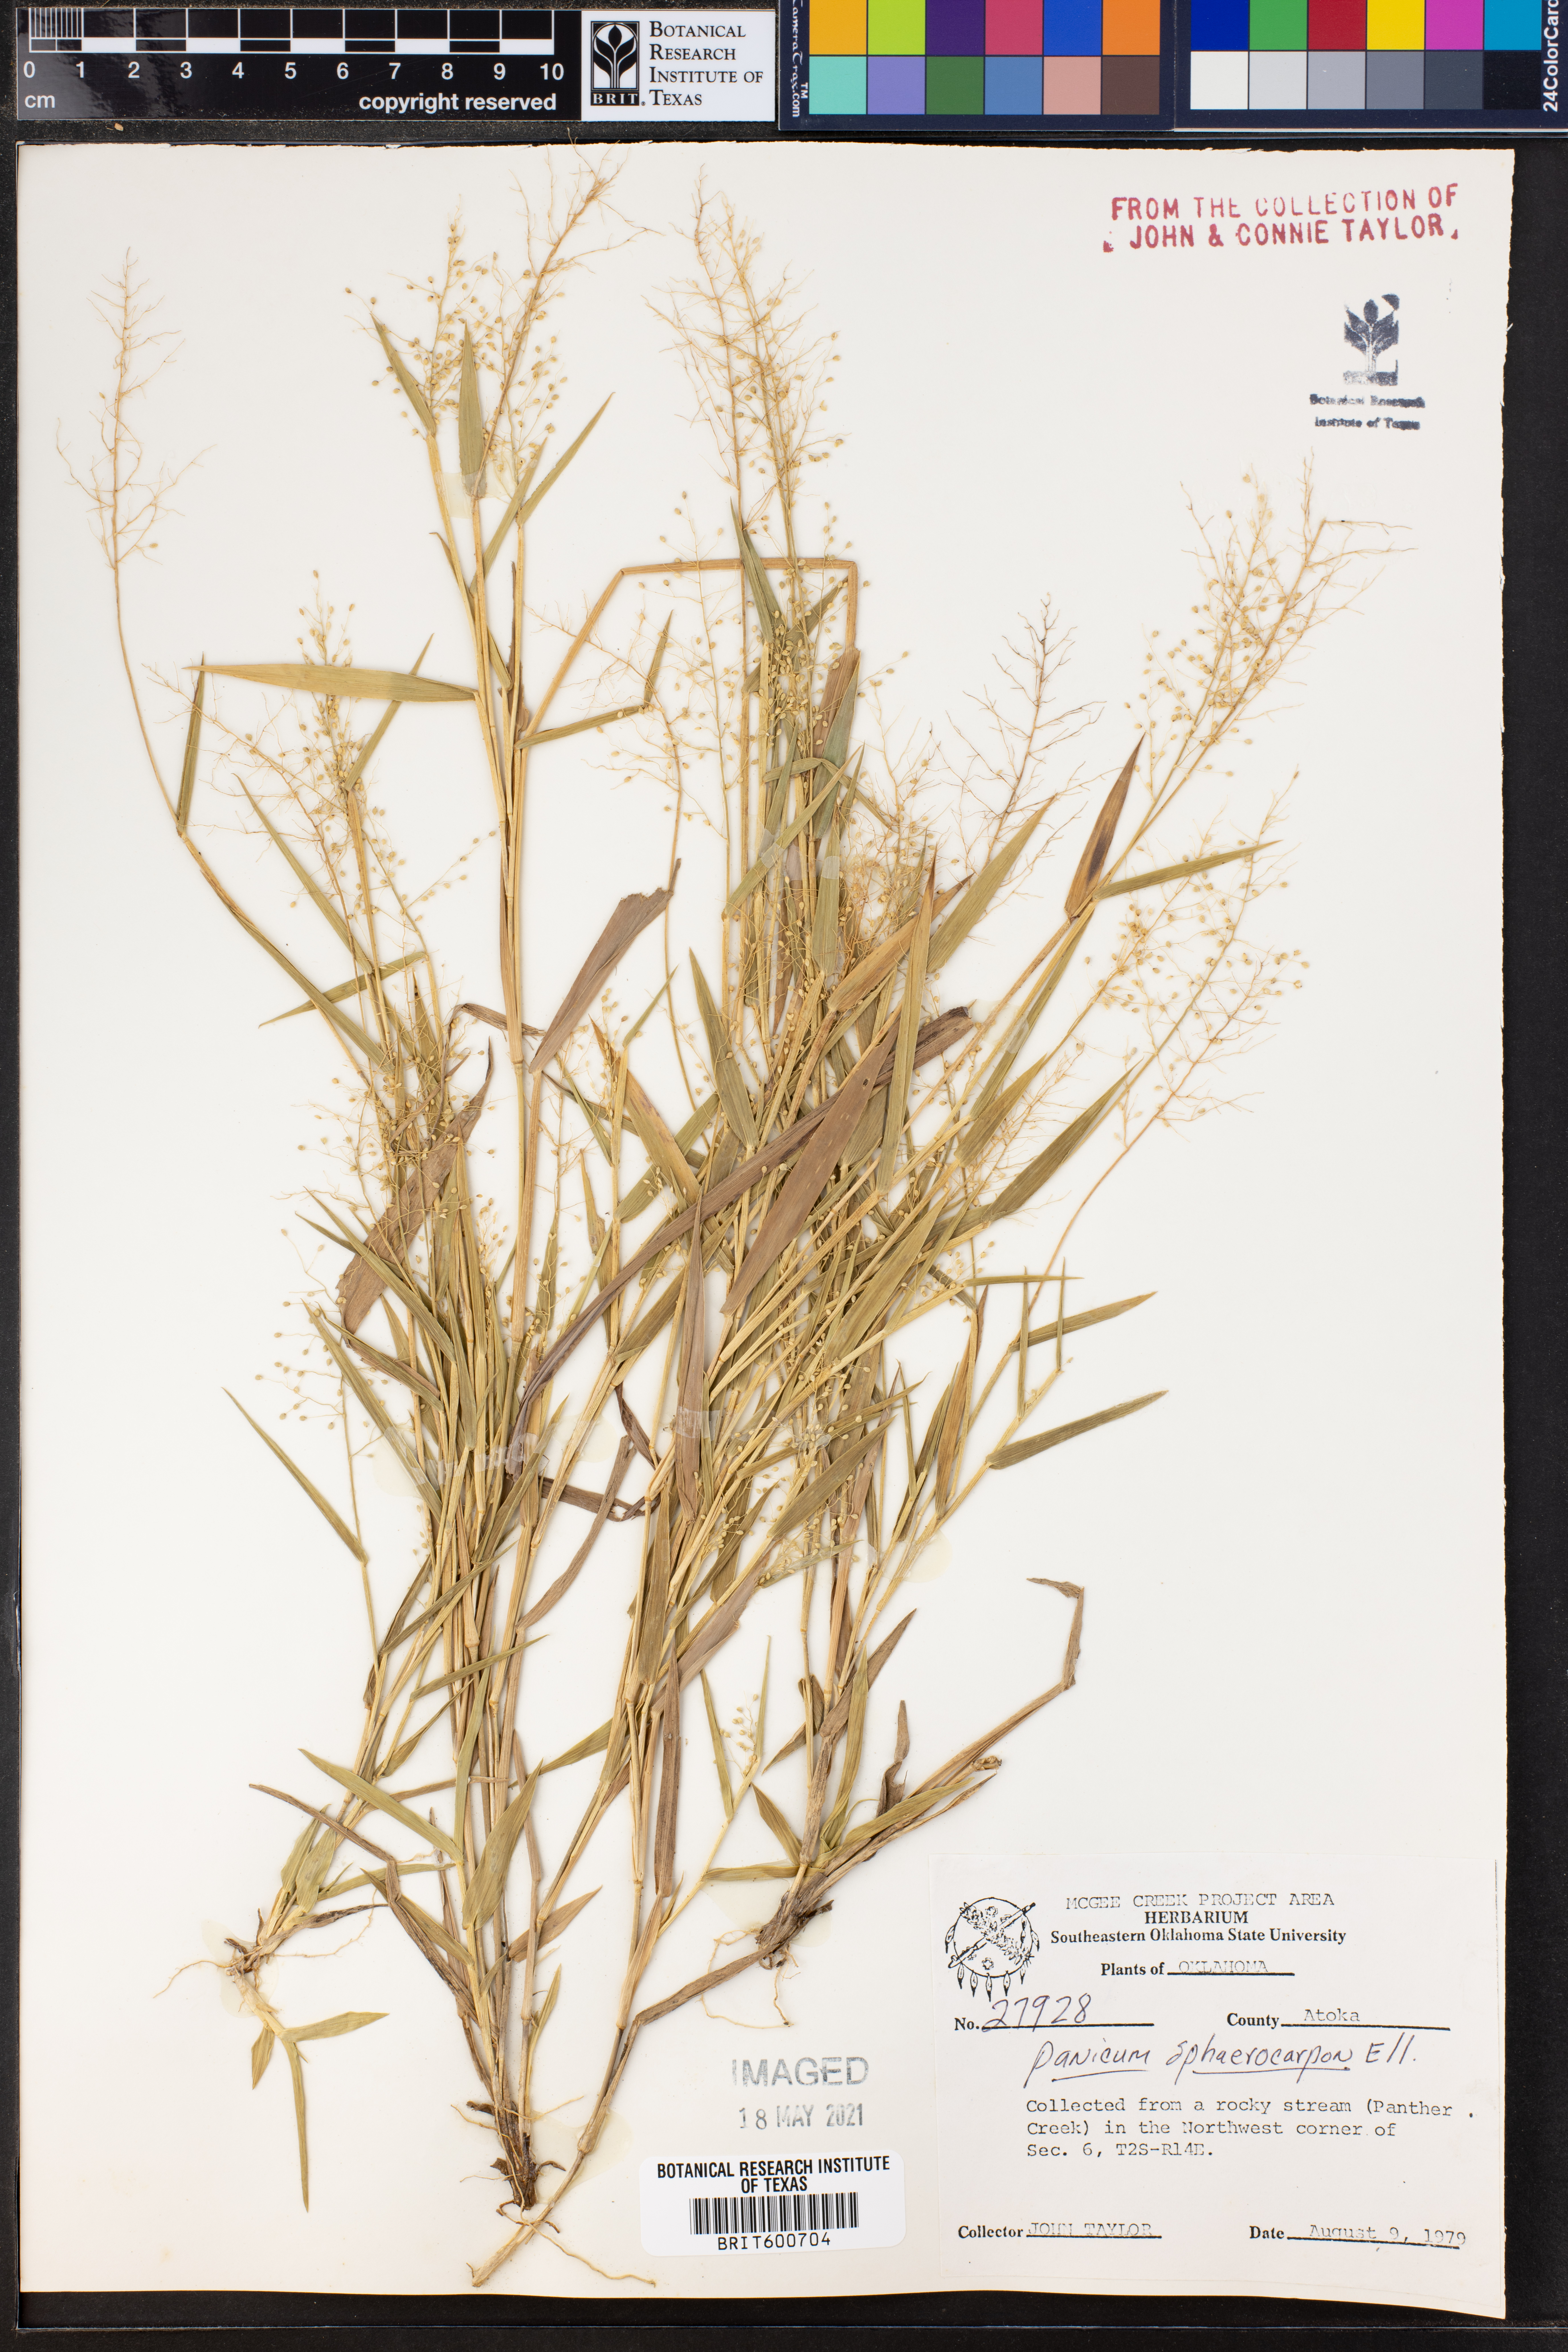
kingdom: Plantae
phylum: Tracheophyta
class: Liliopsida
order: Poales
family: Poaceae
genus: Dichanthelium
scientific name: Dichanthelium sphaerocarpon
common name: Round-fruited panicgrass
